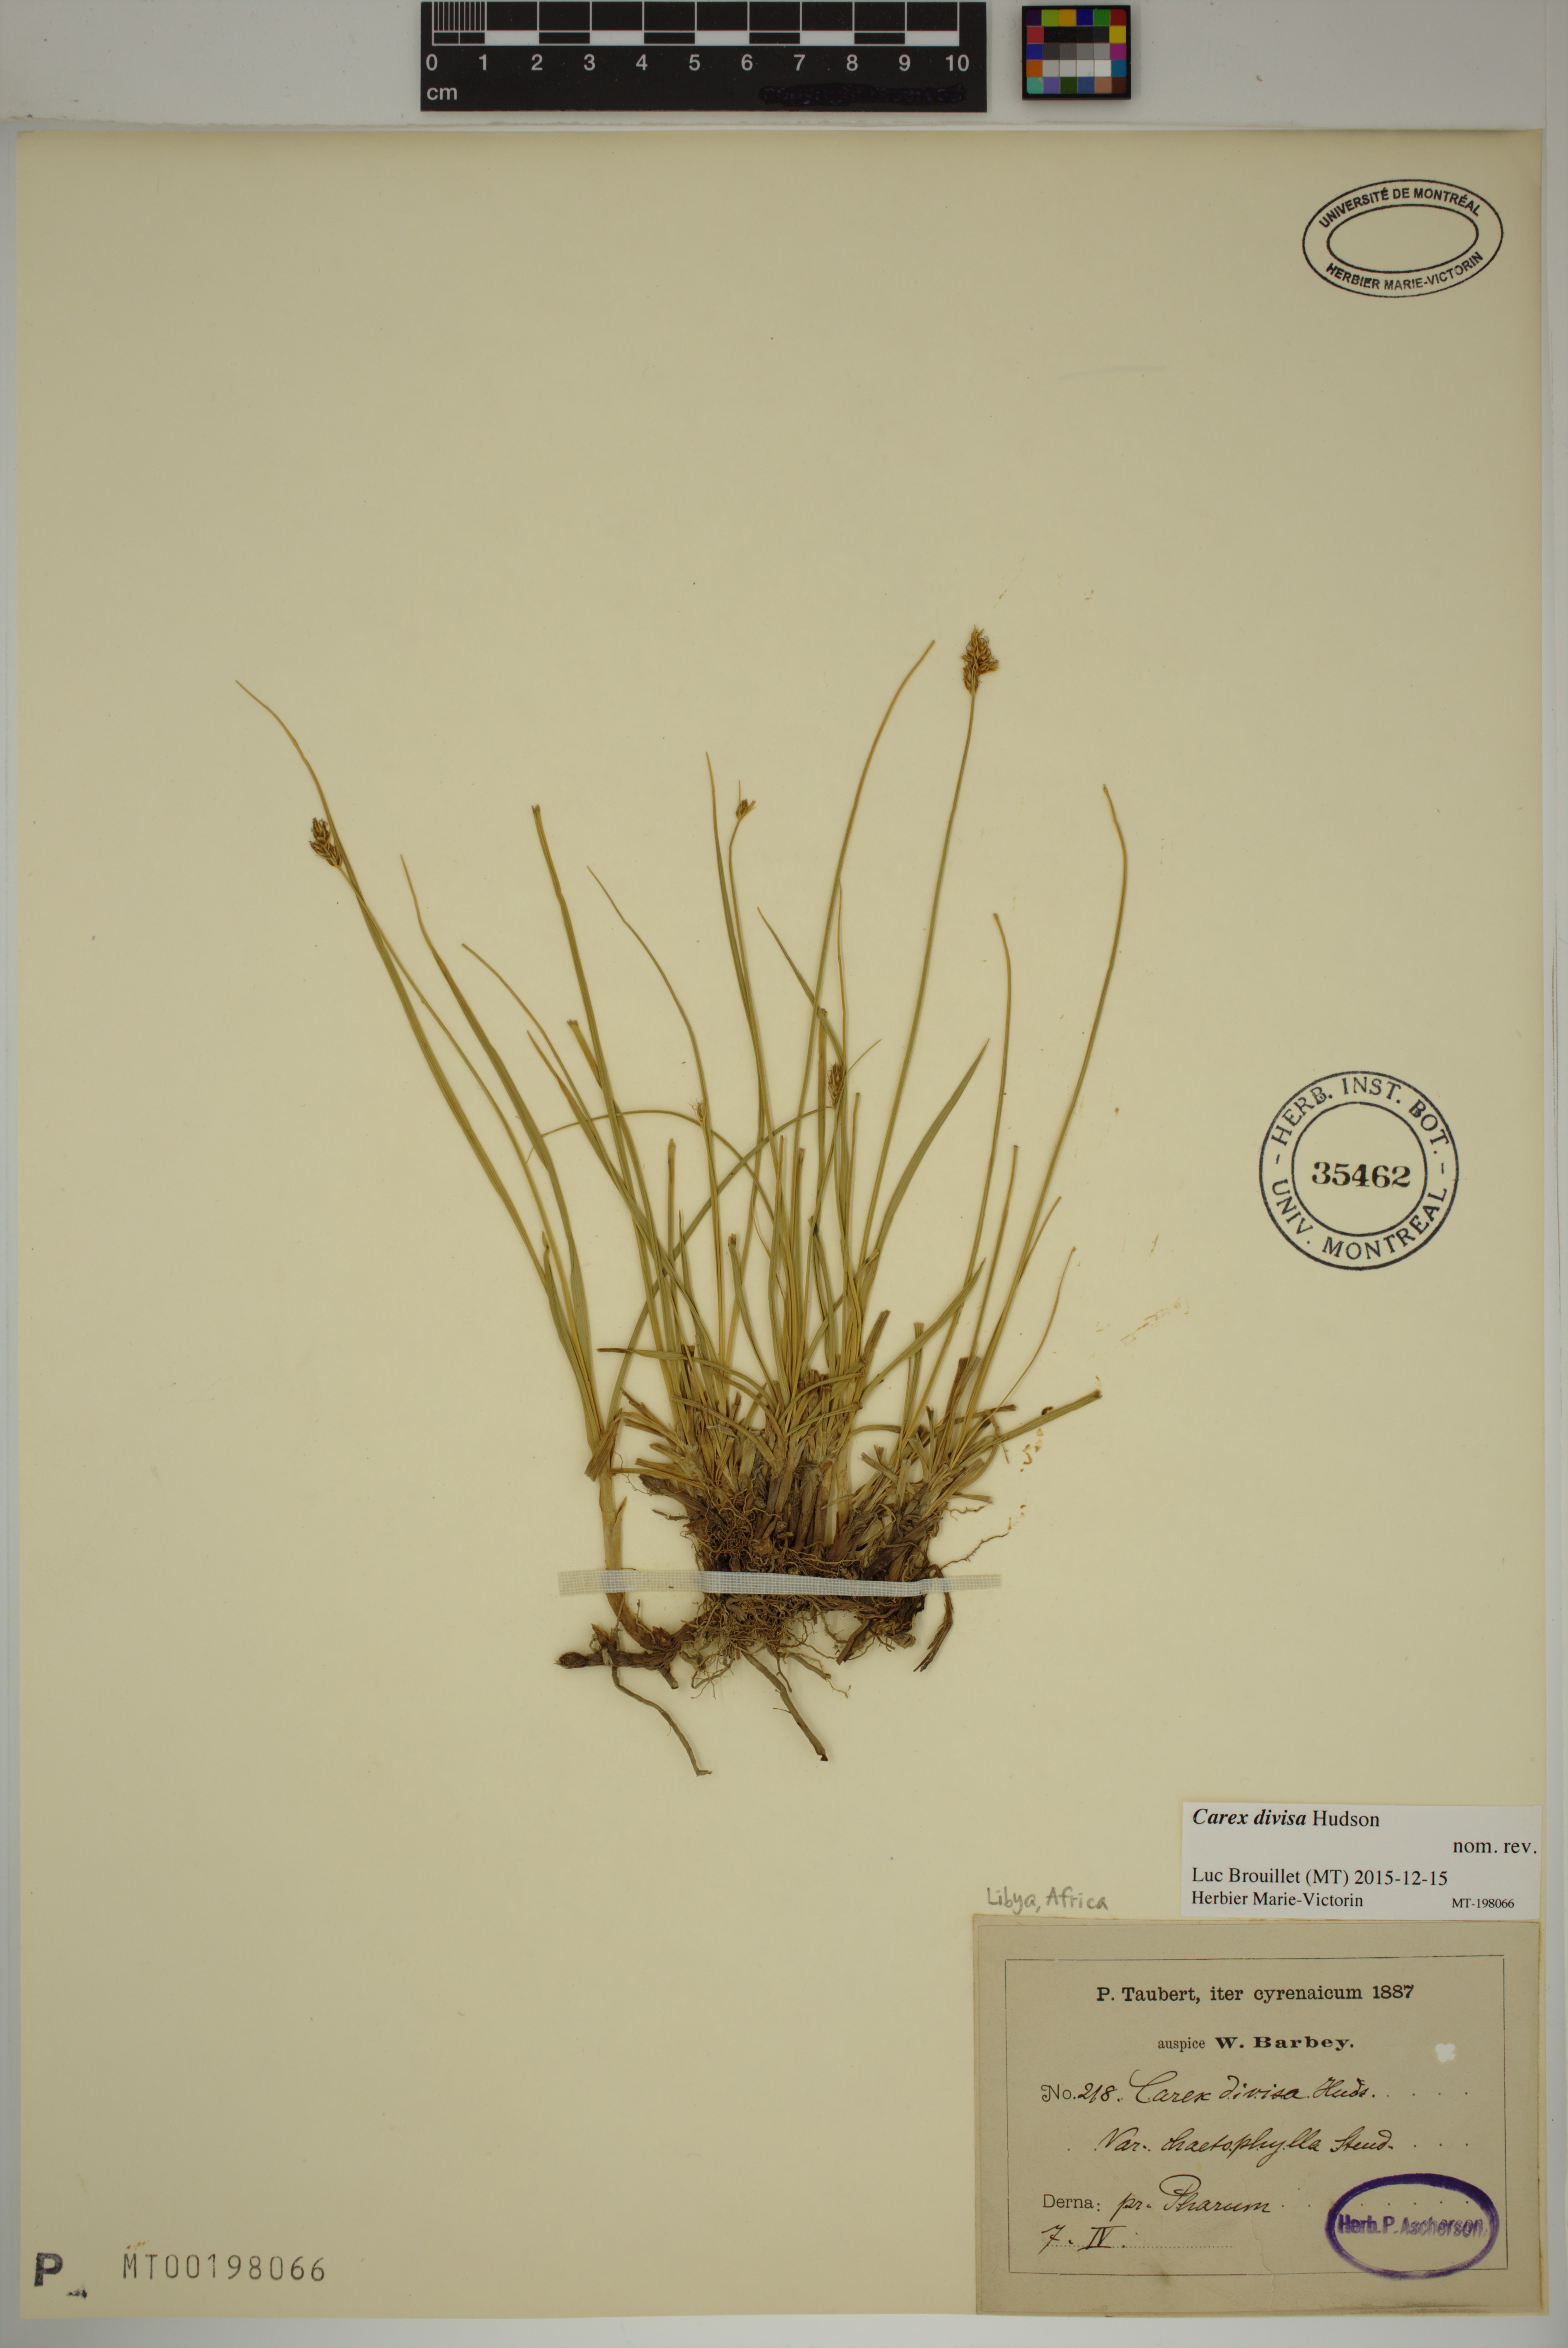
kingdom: Plantae
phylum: Tracheophyta
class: Liliopsida
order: Poales
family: Cyperaceae
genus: Carex
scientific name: Carex divisa
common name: Divided sedge
